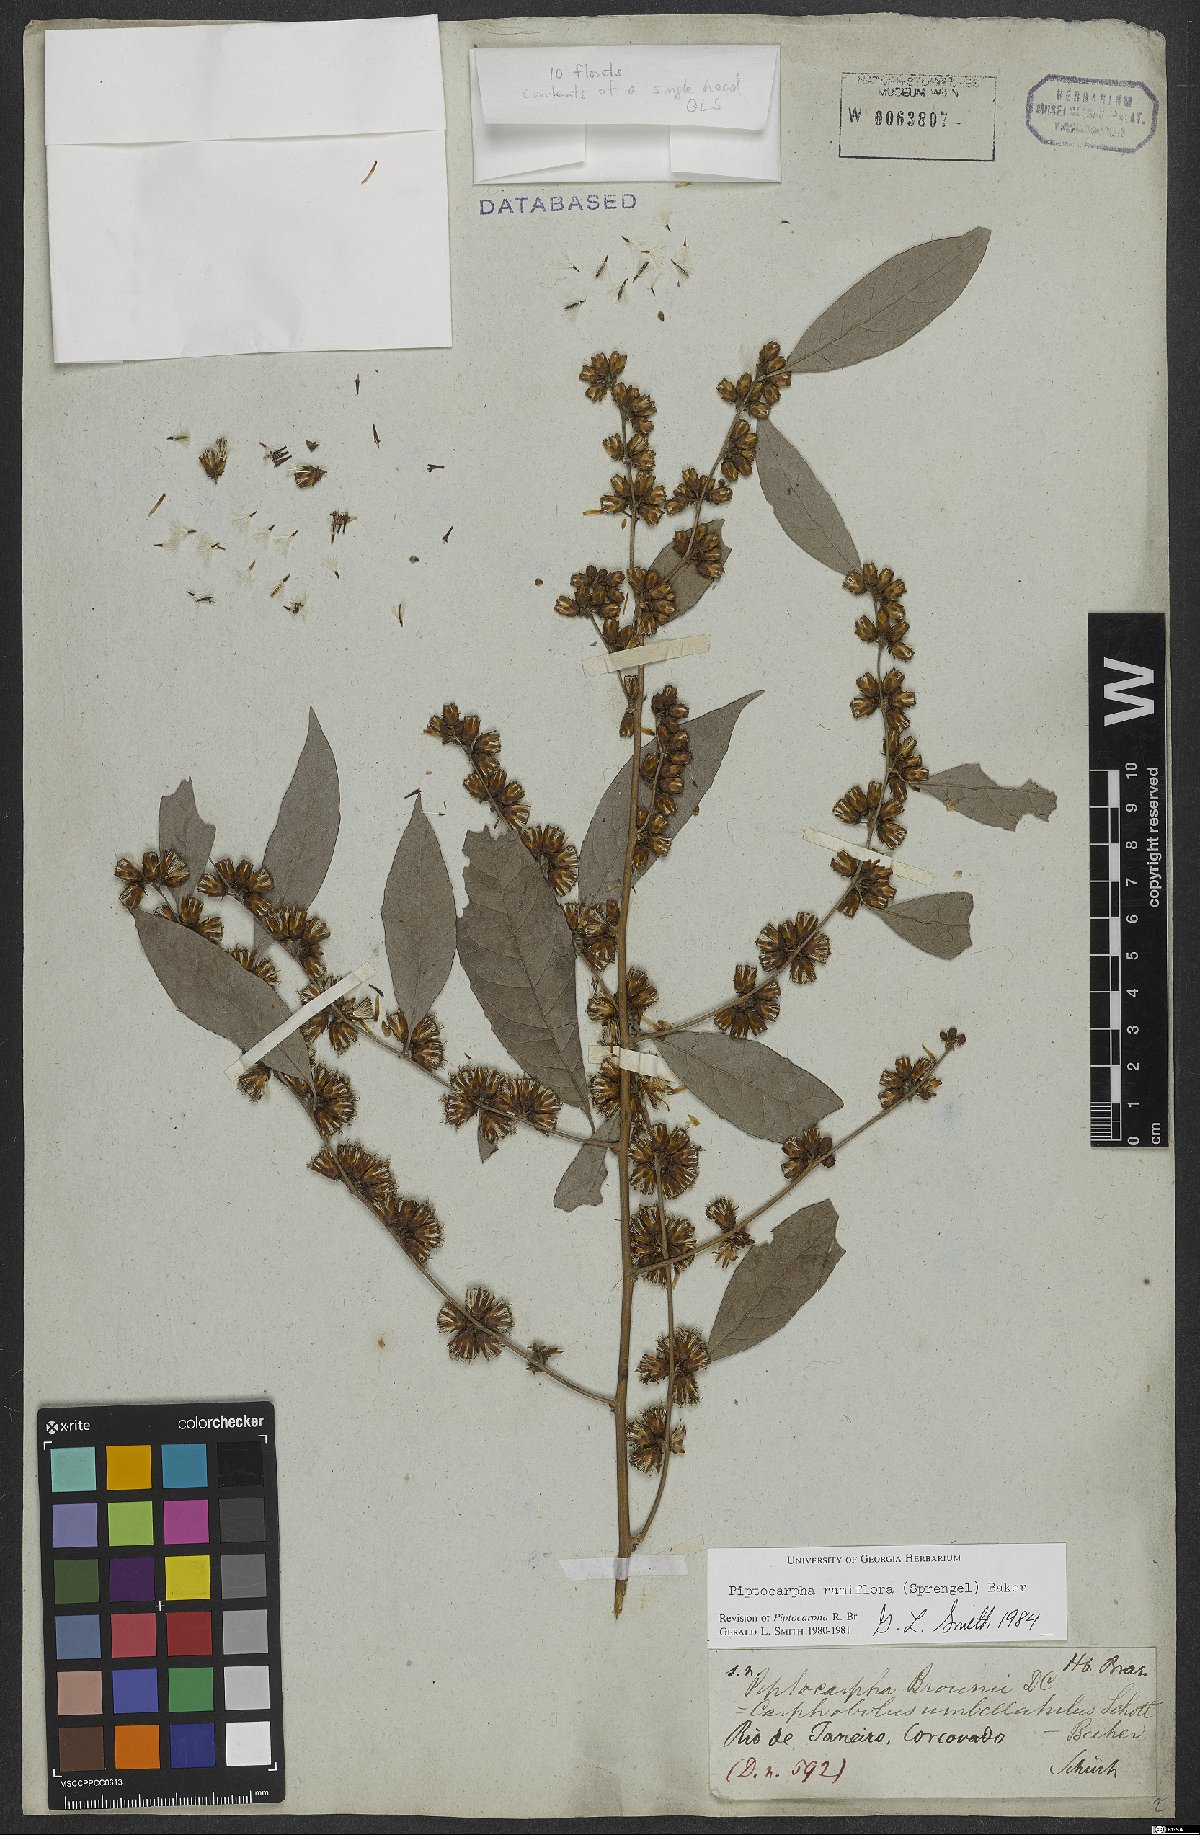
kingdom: Plantae
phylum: Tracheophyta
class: Magnoliopsida
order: Asterales
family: Asteraceae
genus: Piptocarpha
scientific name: Piptocarpha ramiflora
